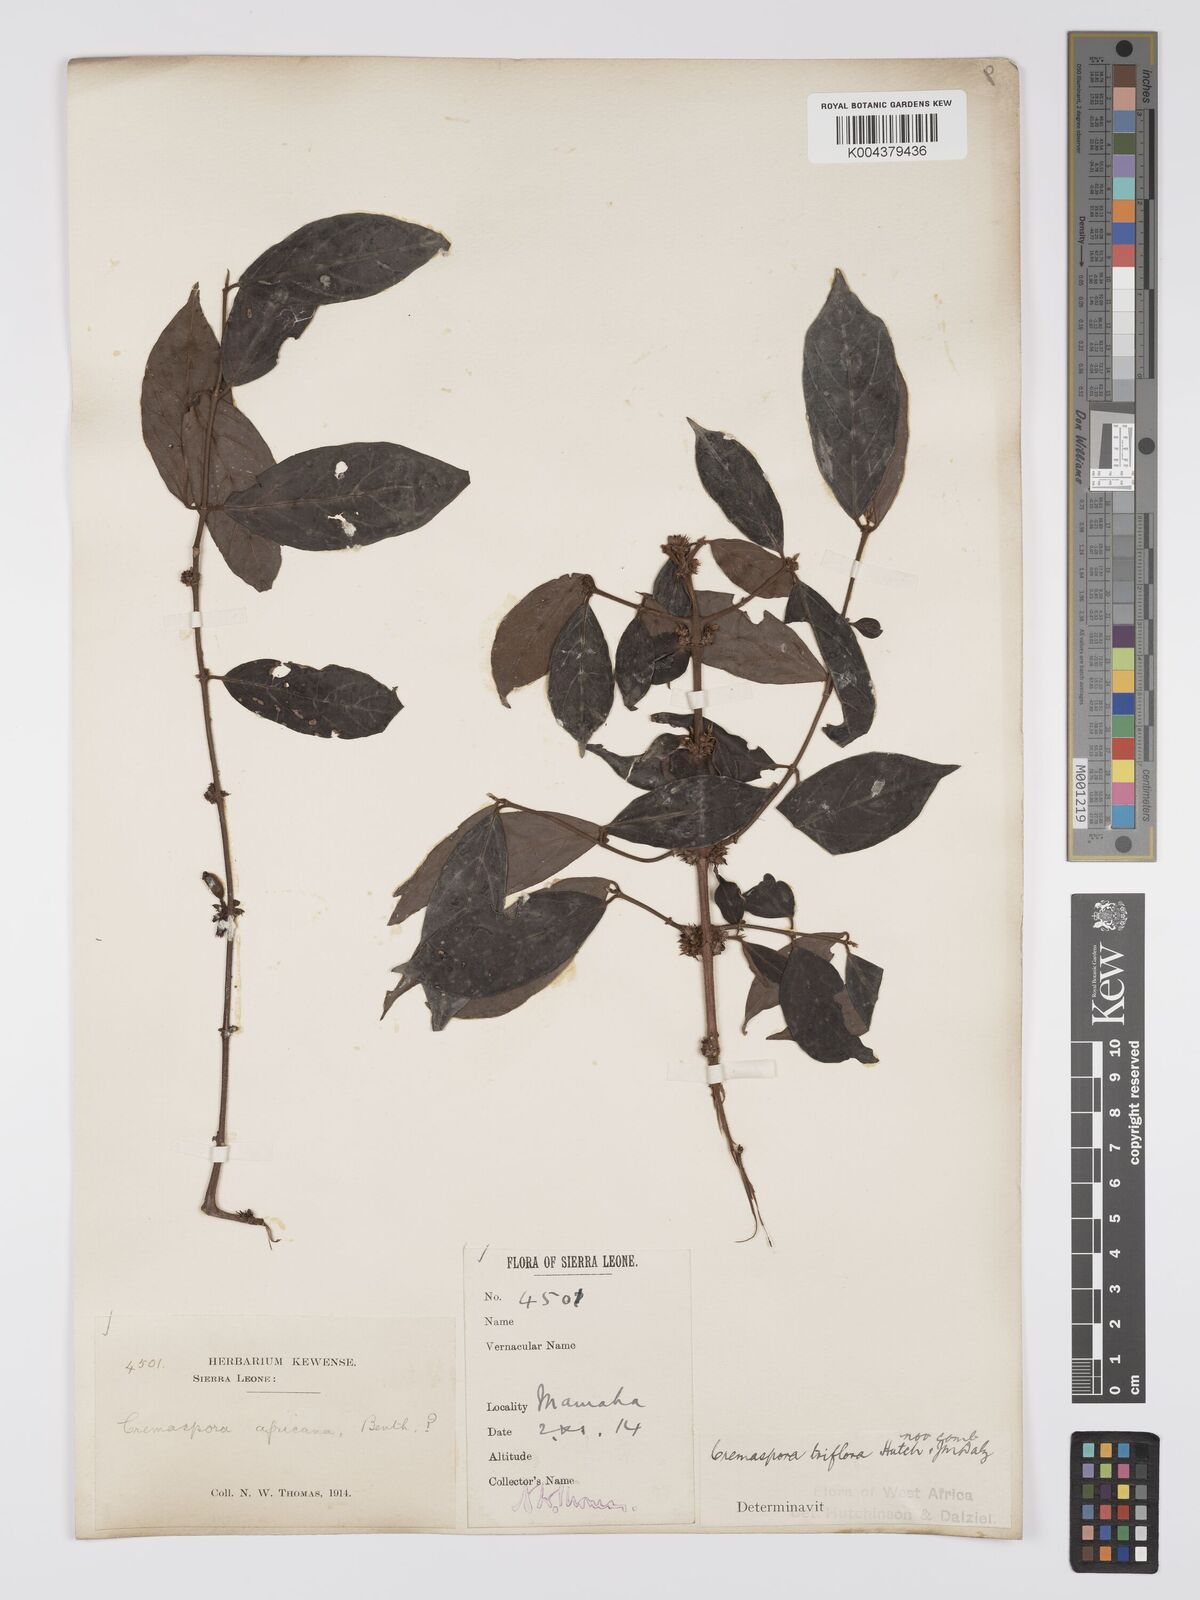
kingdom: Plantae
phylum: Tracheophyta
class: Magnoliopsida
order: Gentianales
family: Rubiaceae
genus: Cremaspora
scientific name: Cremaspora triflora
